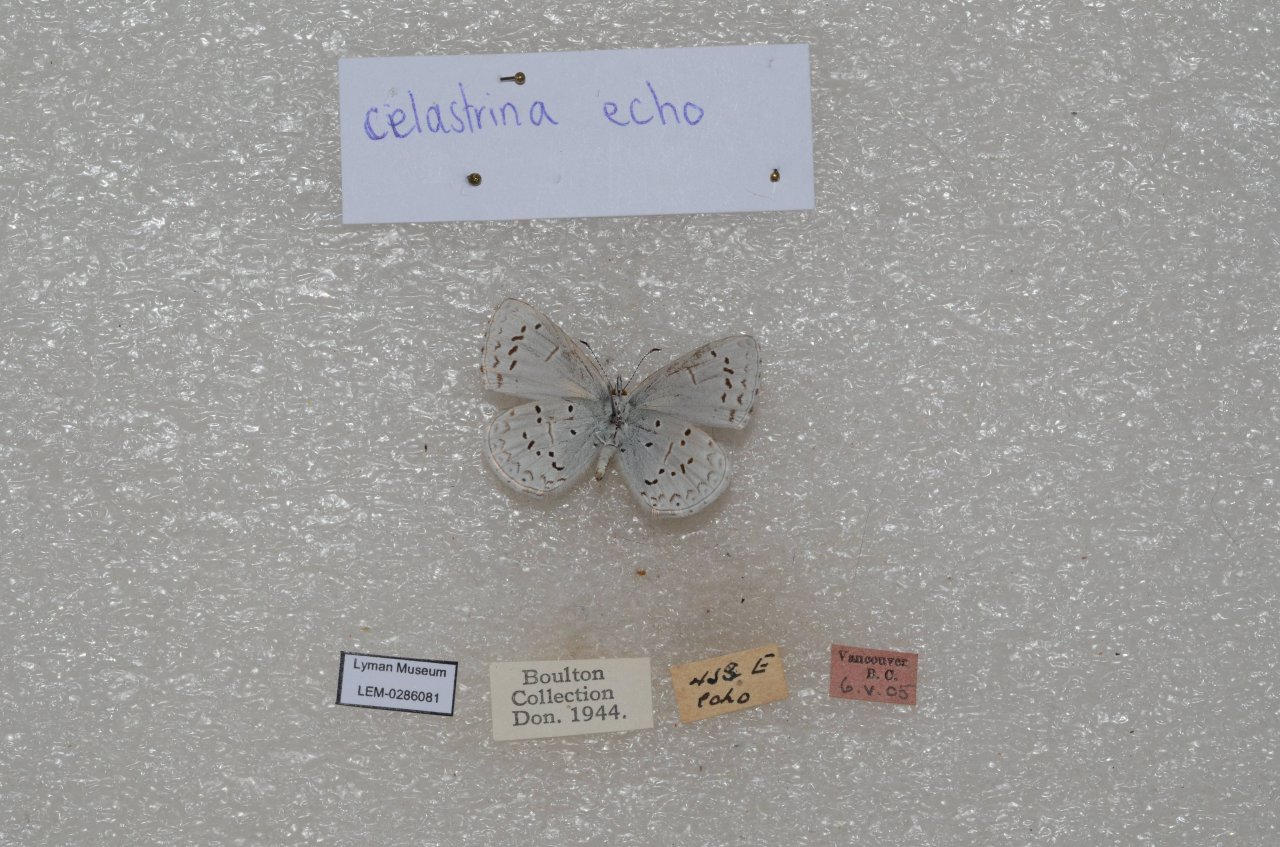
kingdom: Animalia
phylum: Arthropoda
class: Insecta
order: Lepidoptera
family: Lycaenidae
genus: Celastrina
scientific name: Celastrina ladon
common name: Echo Azure
